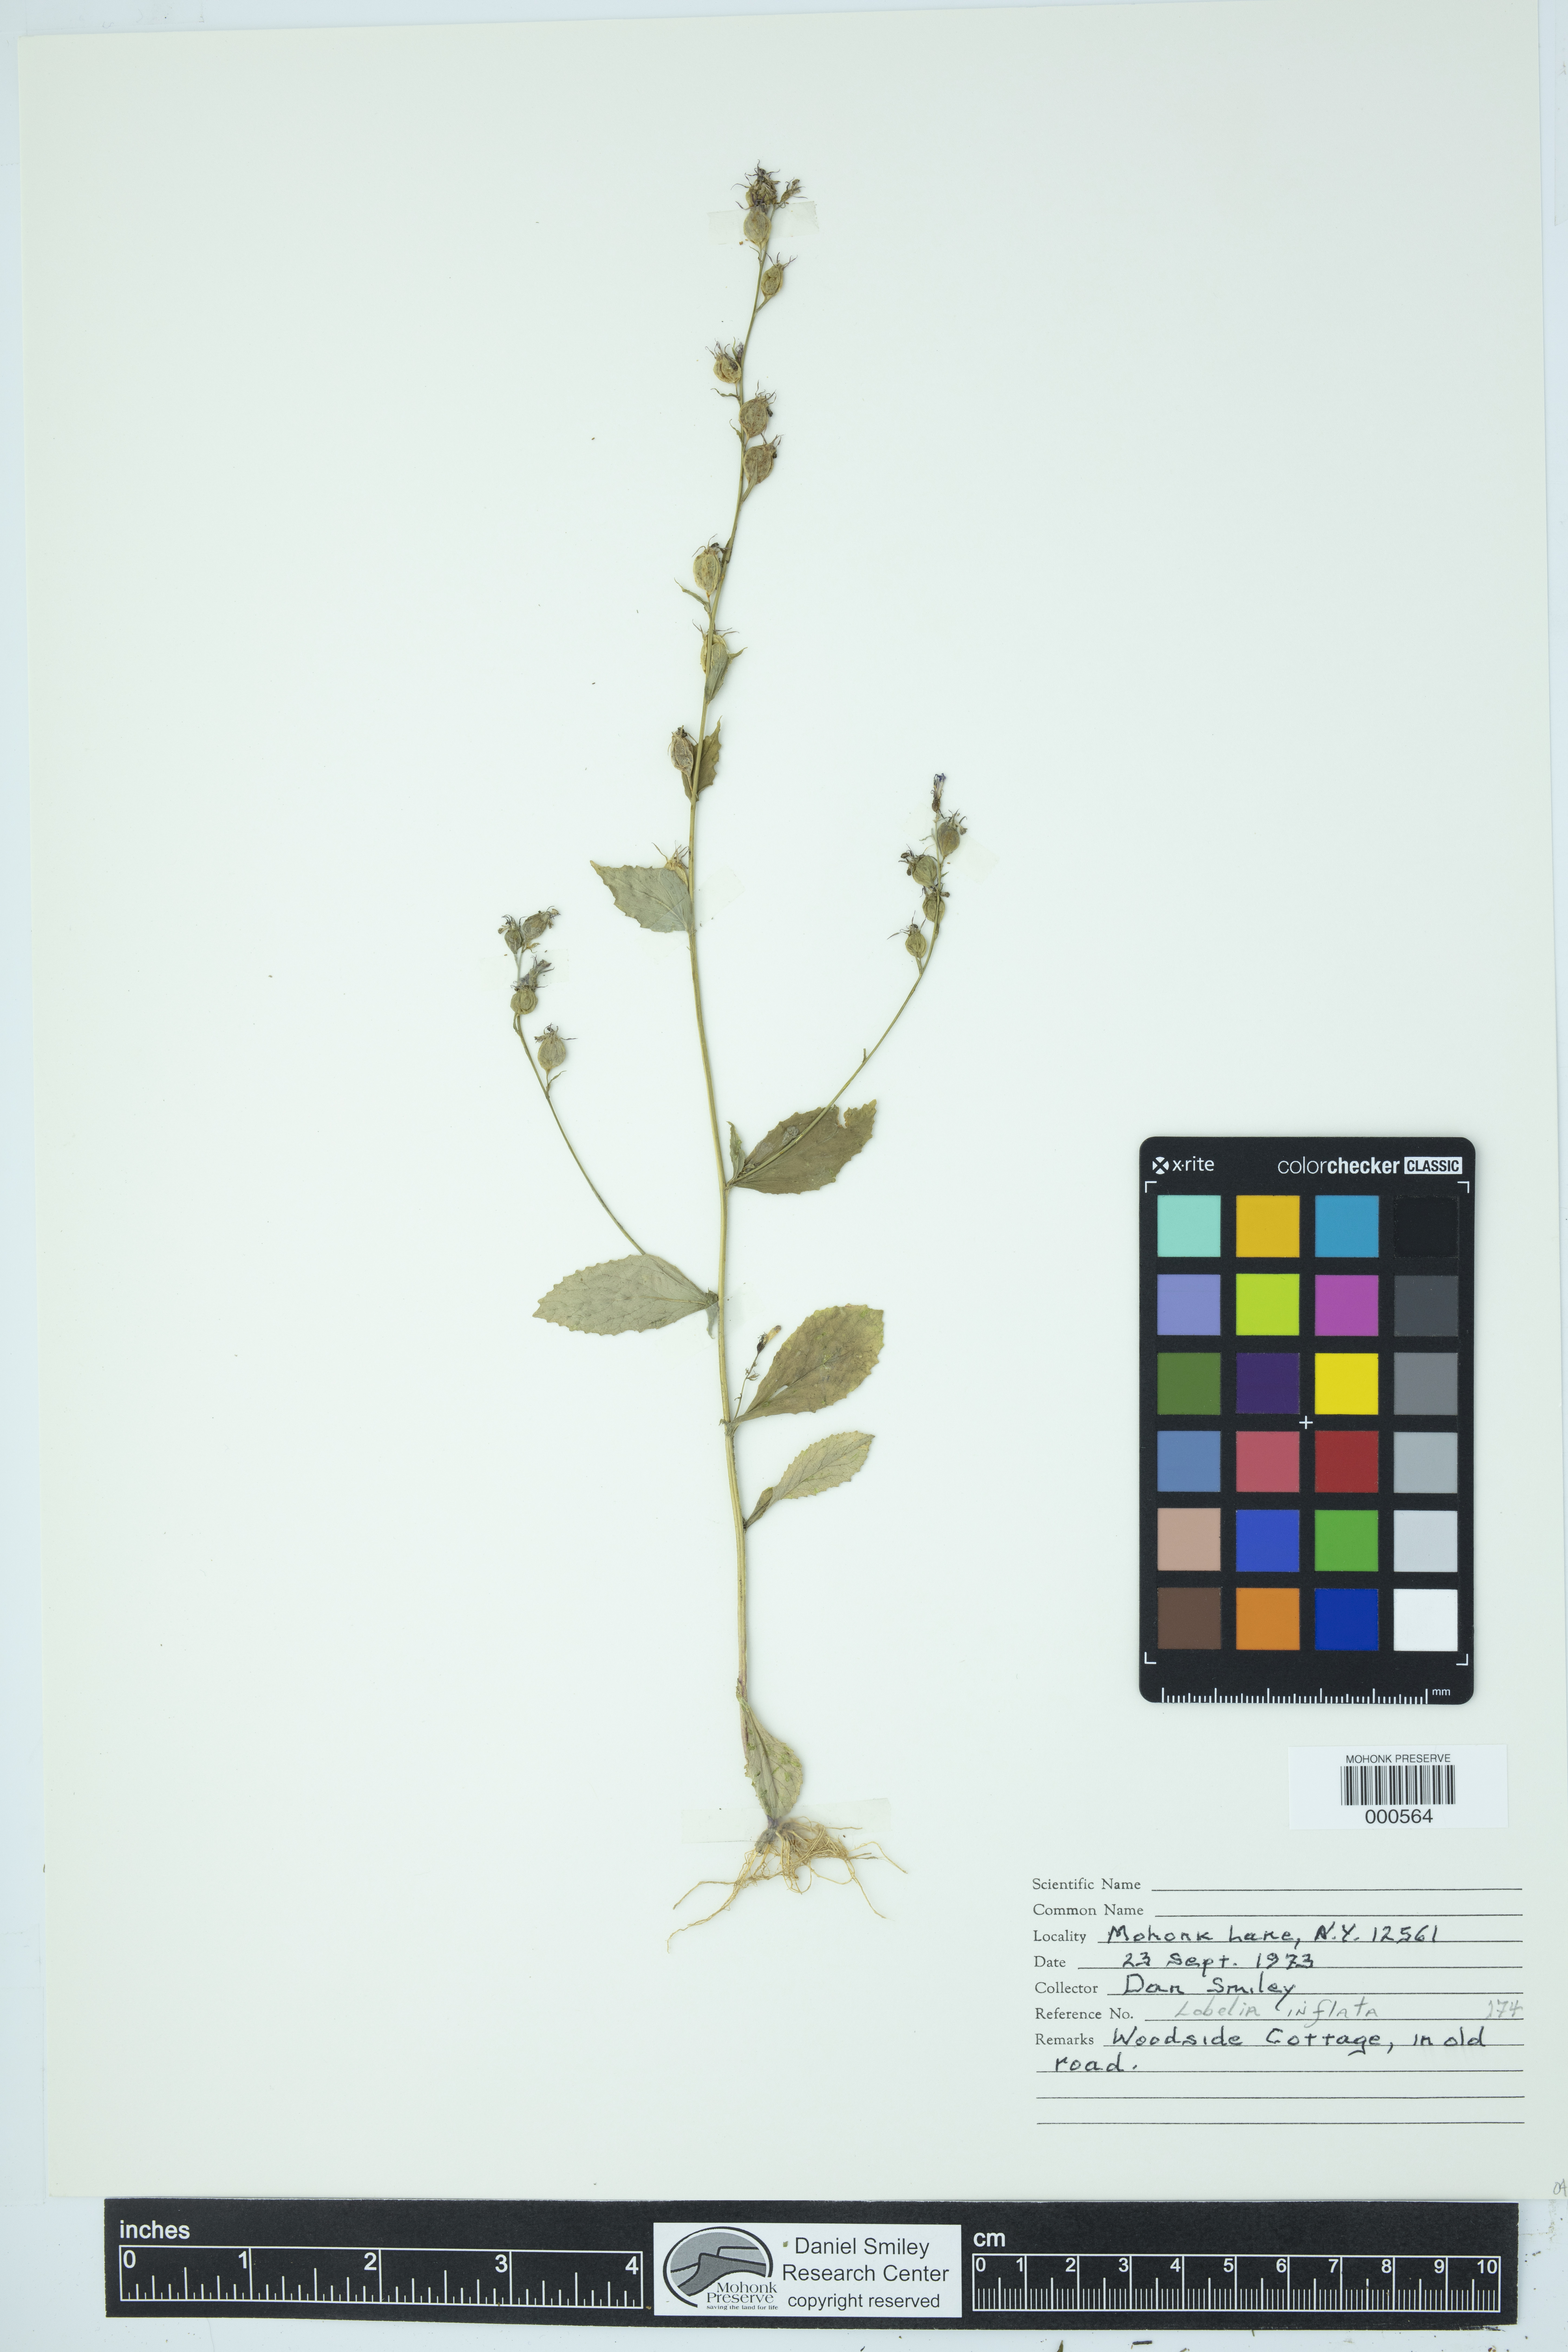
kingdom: Plantae
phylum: Tracheophyta
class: Magnoliopsida
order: Asterales
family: Campanulaceae
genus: Lobelia
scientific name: Lobelia inflata
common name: Indian tobacco
